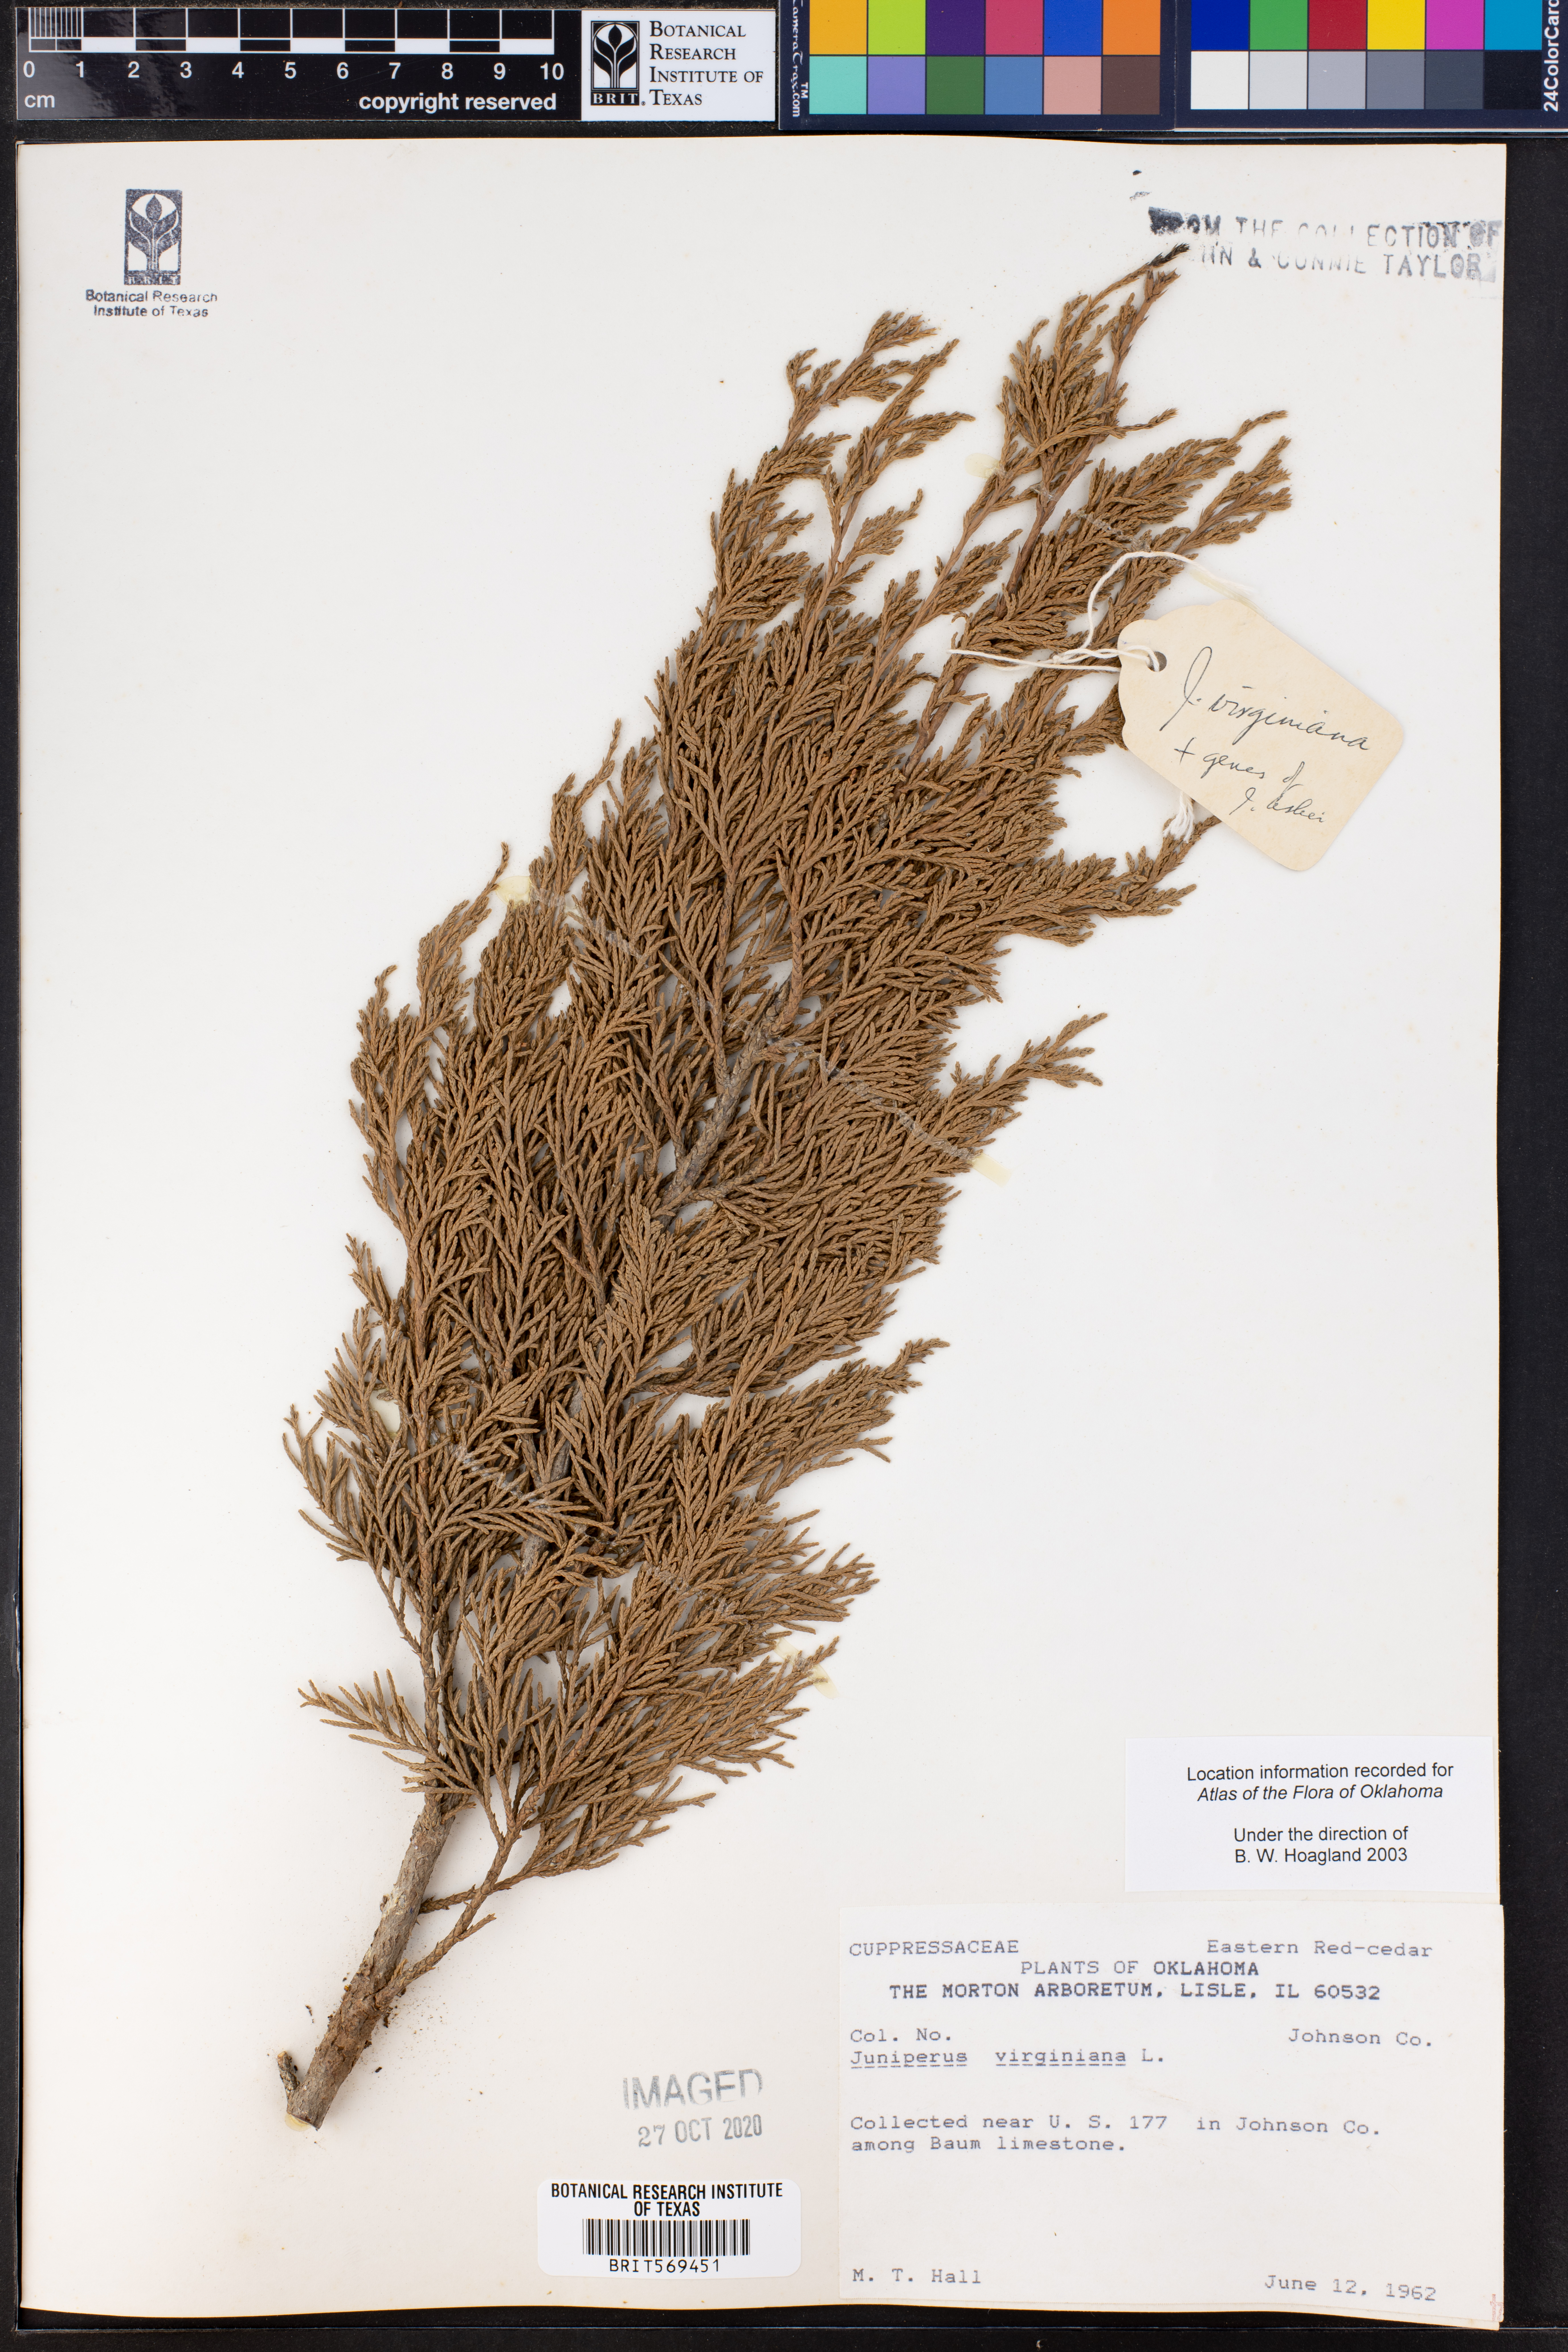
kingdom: Plantae
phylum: Tracheophyta
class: Pinopsida
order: Pinales
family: Cupressaceae
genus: Juniperus
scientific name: Juniperus virginiana
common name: Red juniper
